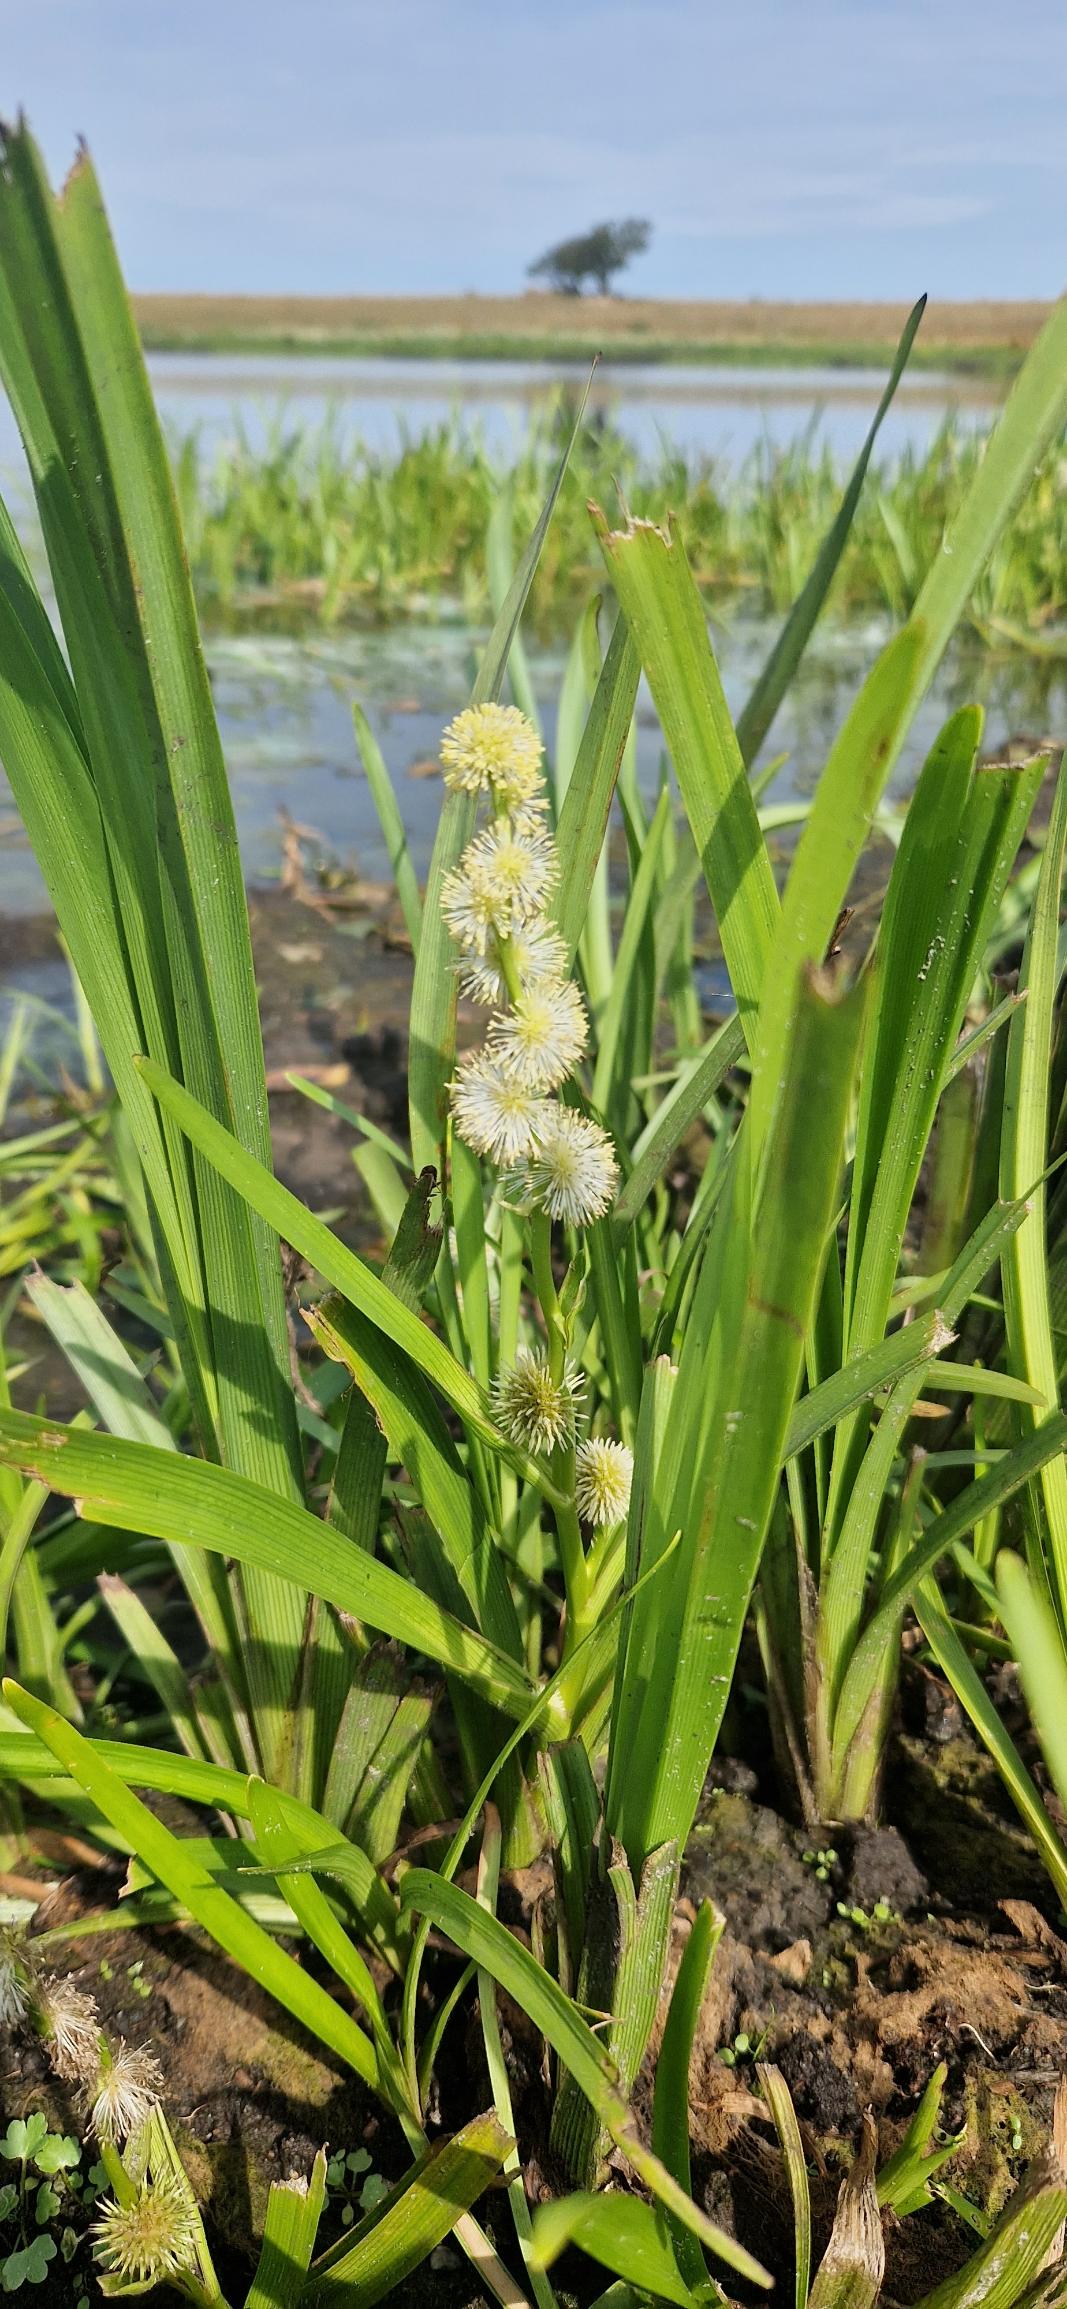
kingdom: Plantae
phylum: Tracheophyta
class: Liliopsida
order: Poales
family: Typhaceae
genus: Sparganium
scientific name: Sparganium emersum
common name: Enkelt pindsvineknop
